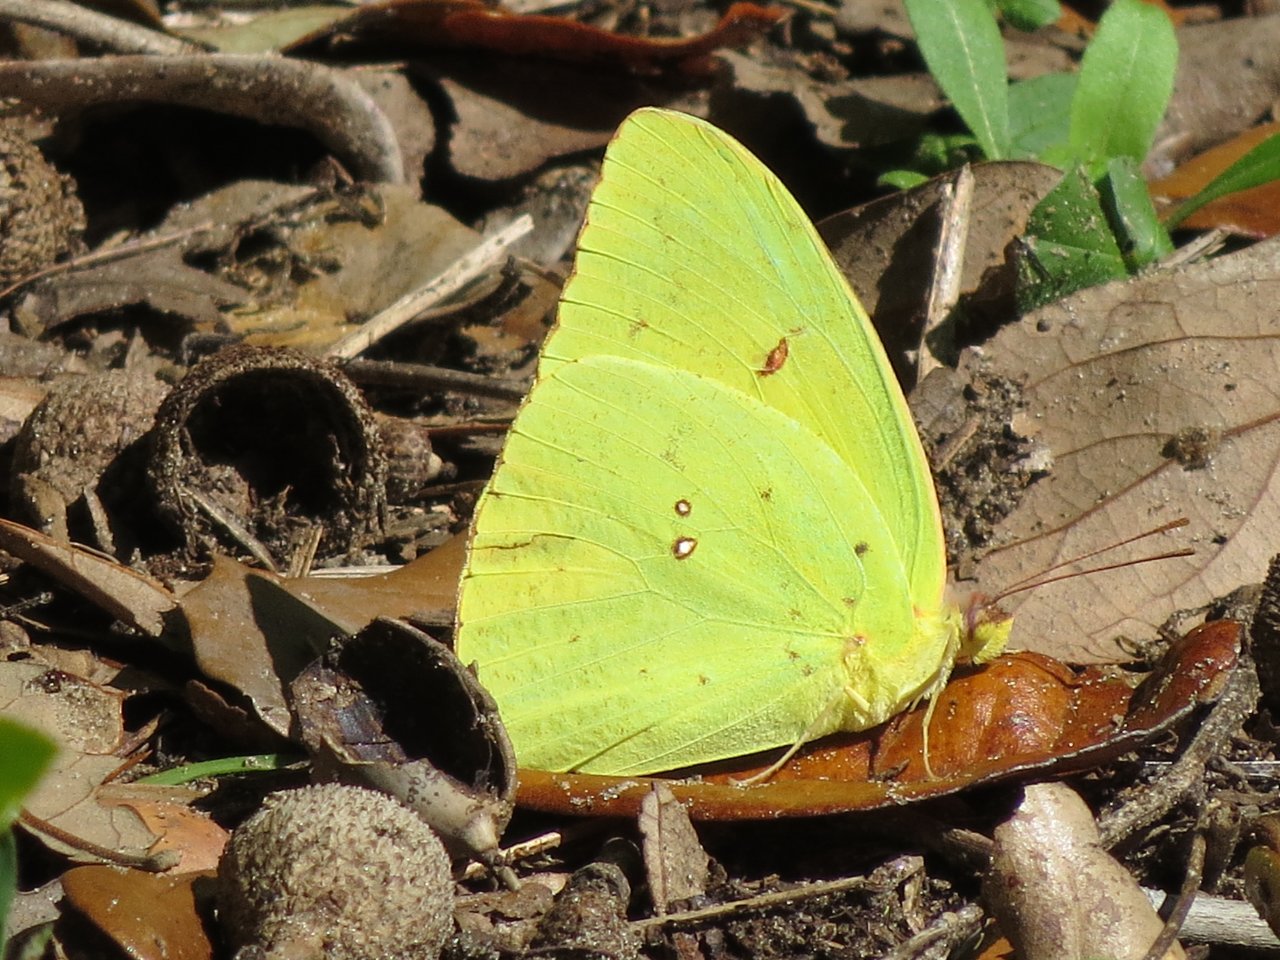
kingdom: Animalia
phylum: Arthropoda
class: Insecta
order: Lepidoptera
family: Pieridae
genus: Phoebis
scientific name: Phoebis sennae
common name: Cloudless Sulphur
